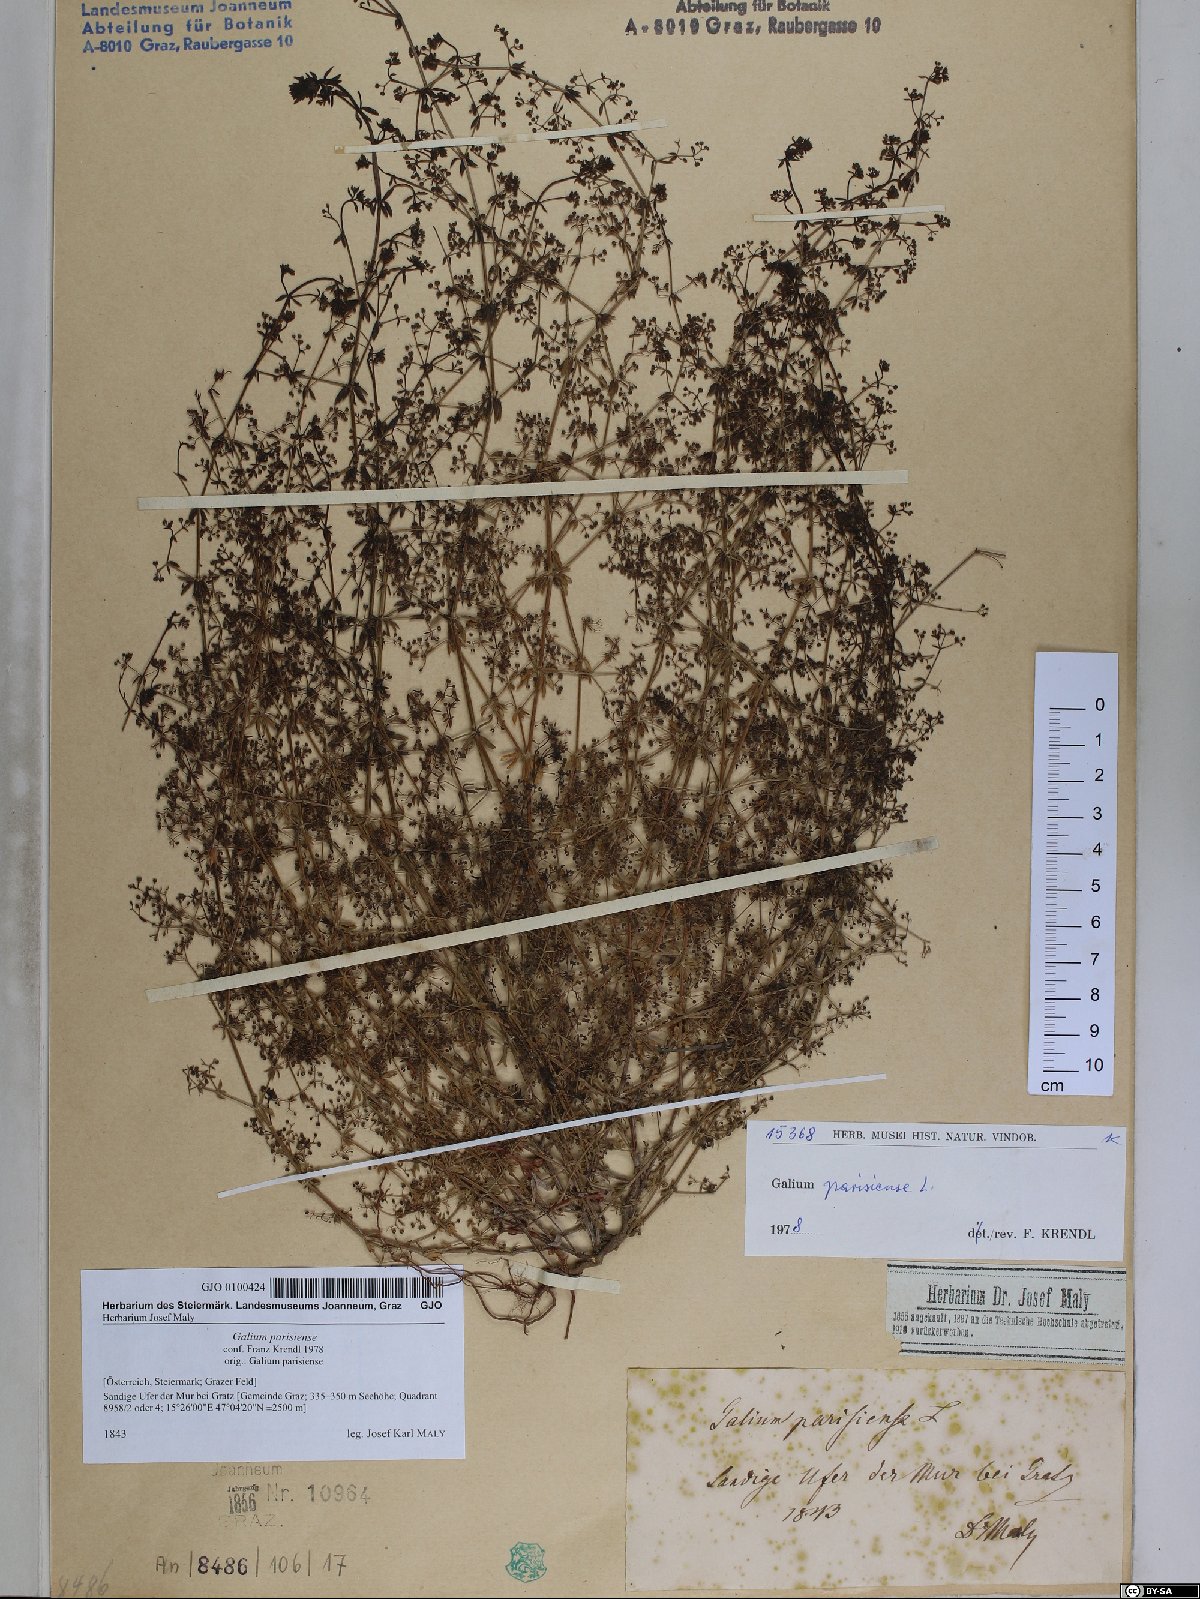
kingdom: Plantae
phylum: Tracheophyta
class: Magnoliopsida
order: Gentianales
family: Rubiaceae
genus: Galium
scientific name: Galium parisiense
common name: Wall bedstraw
